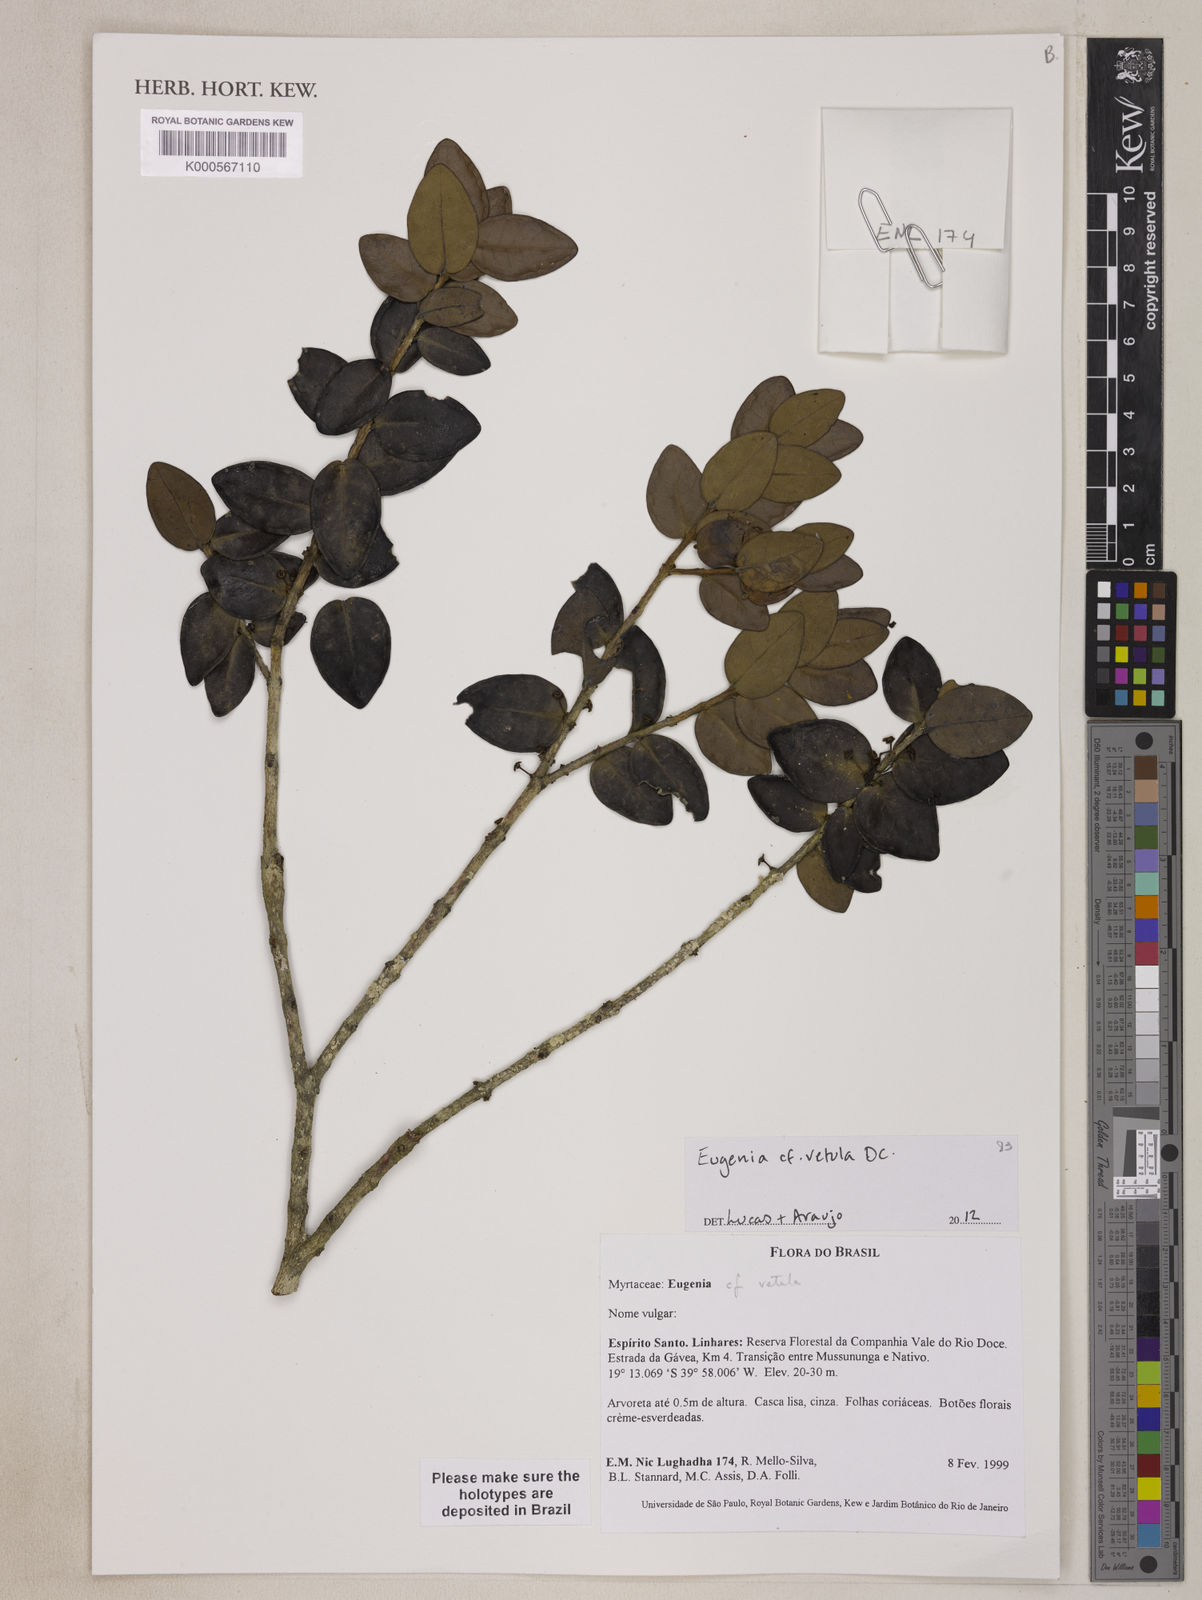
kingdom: Plantae
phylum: Tracheophyta
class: Magnoliopsida
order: Myrtales
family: Myrtaceae
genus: Eugenia
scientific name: Eugenia vetula
